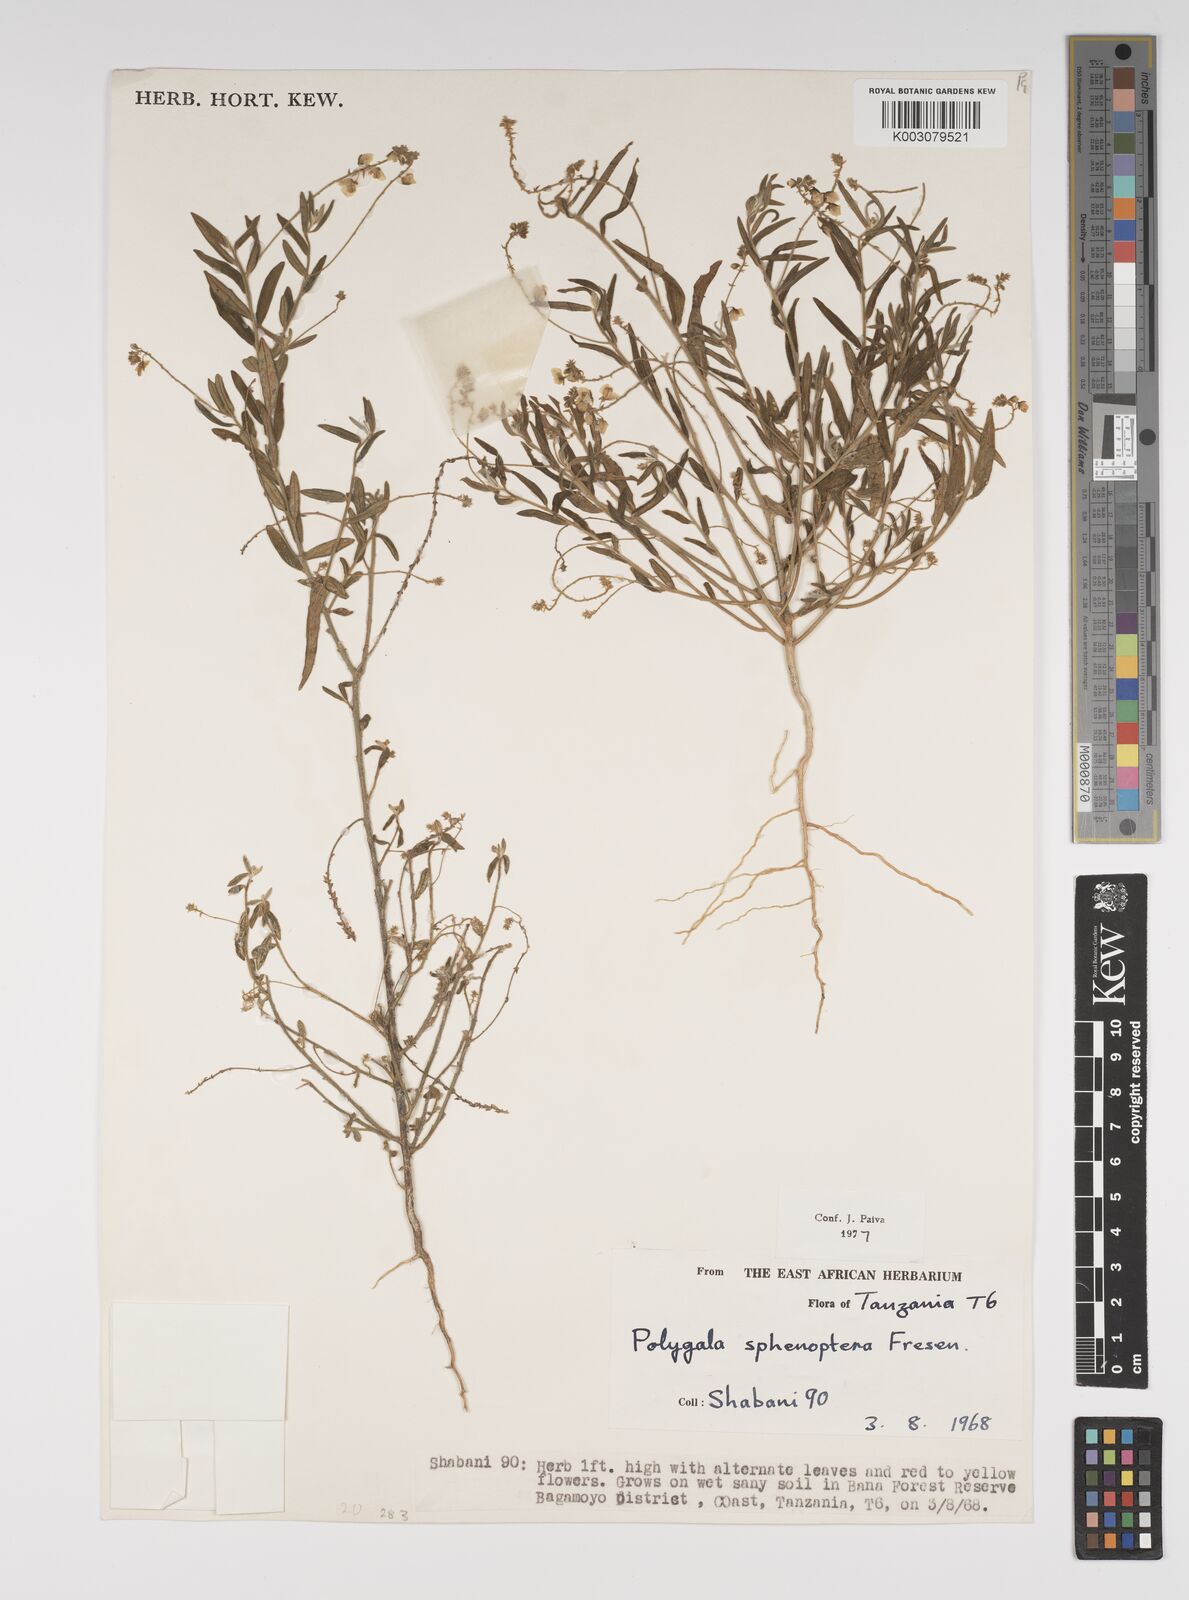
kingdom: Plantae
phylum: Tracheophyta
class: Magnoliopsida
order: Fabales
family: Polygalaceae
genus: Polygala
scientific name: Polygala sphenoptera
